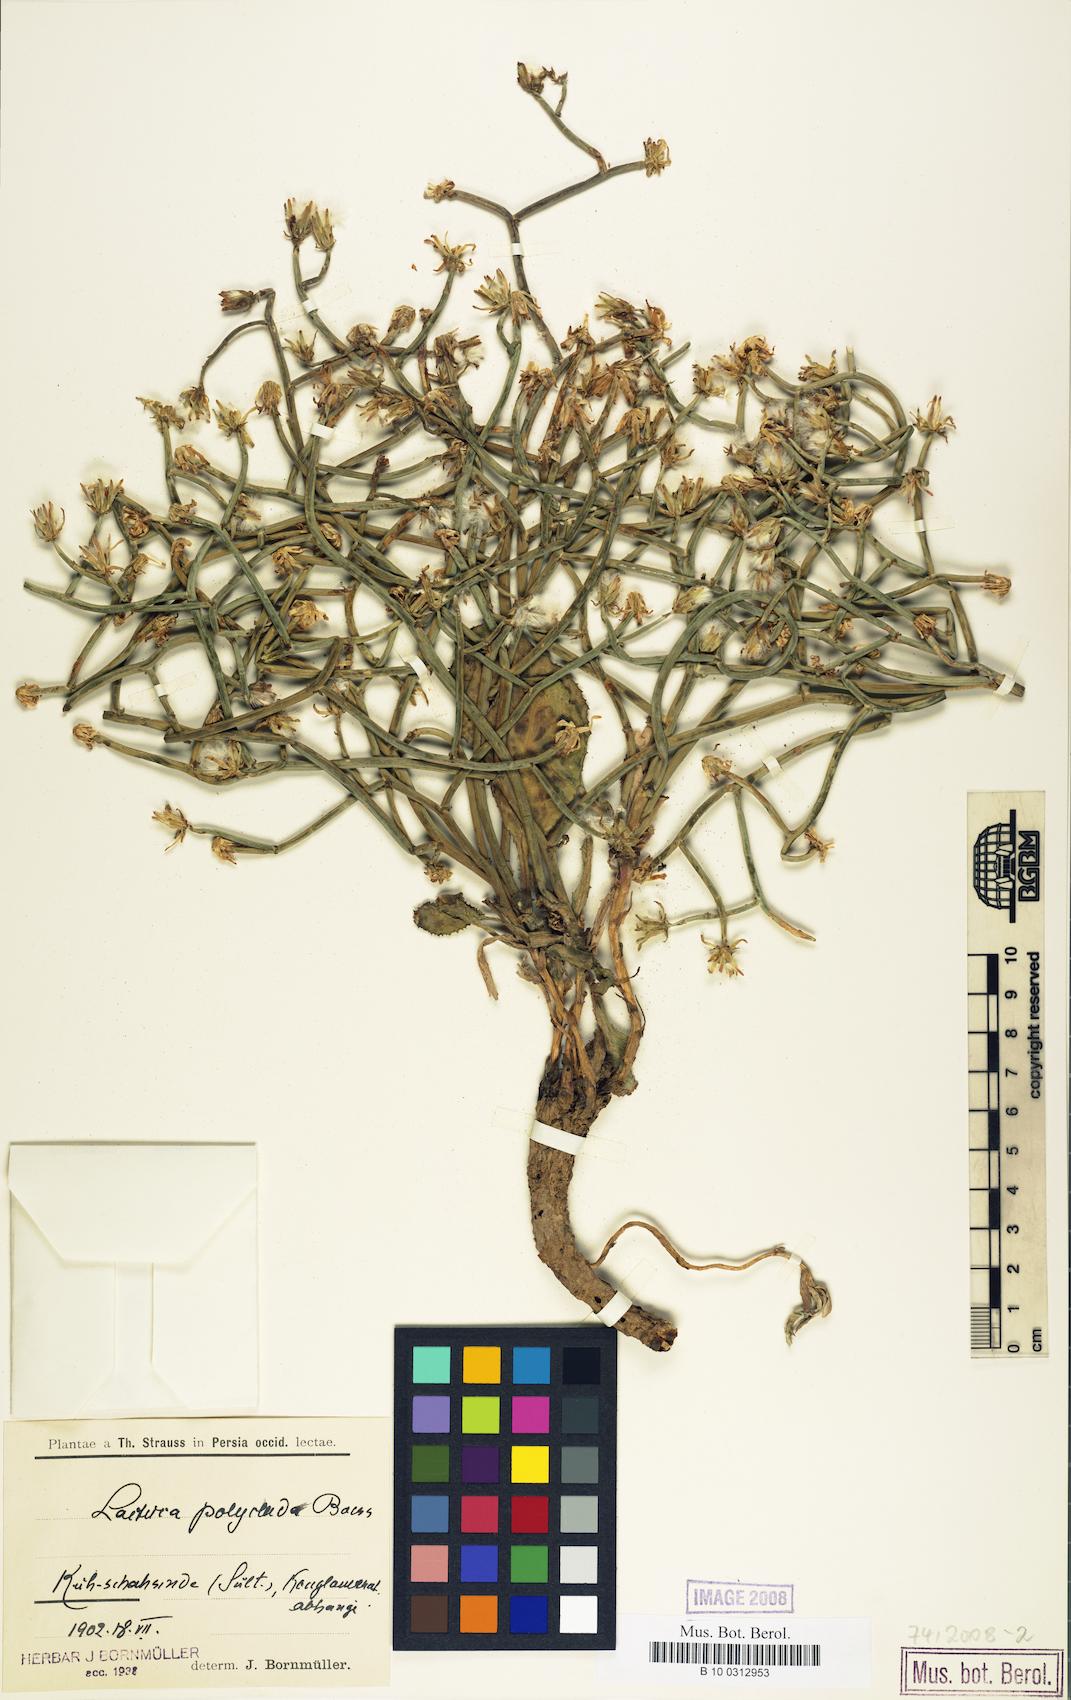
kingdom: Plantae
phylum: Tracheophyta
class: Magnoliopsida
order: Asterales
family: Asteraceae
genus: Lactuca
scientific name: Lactuca polyclada
